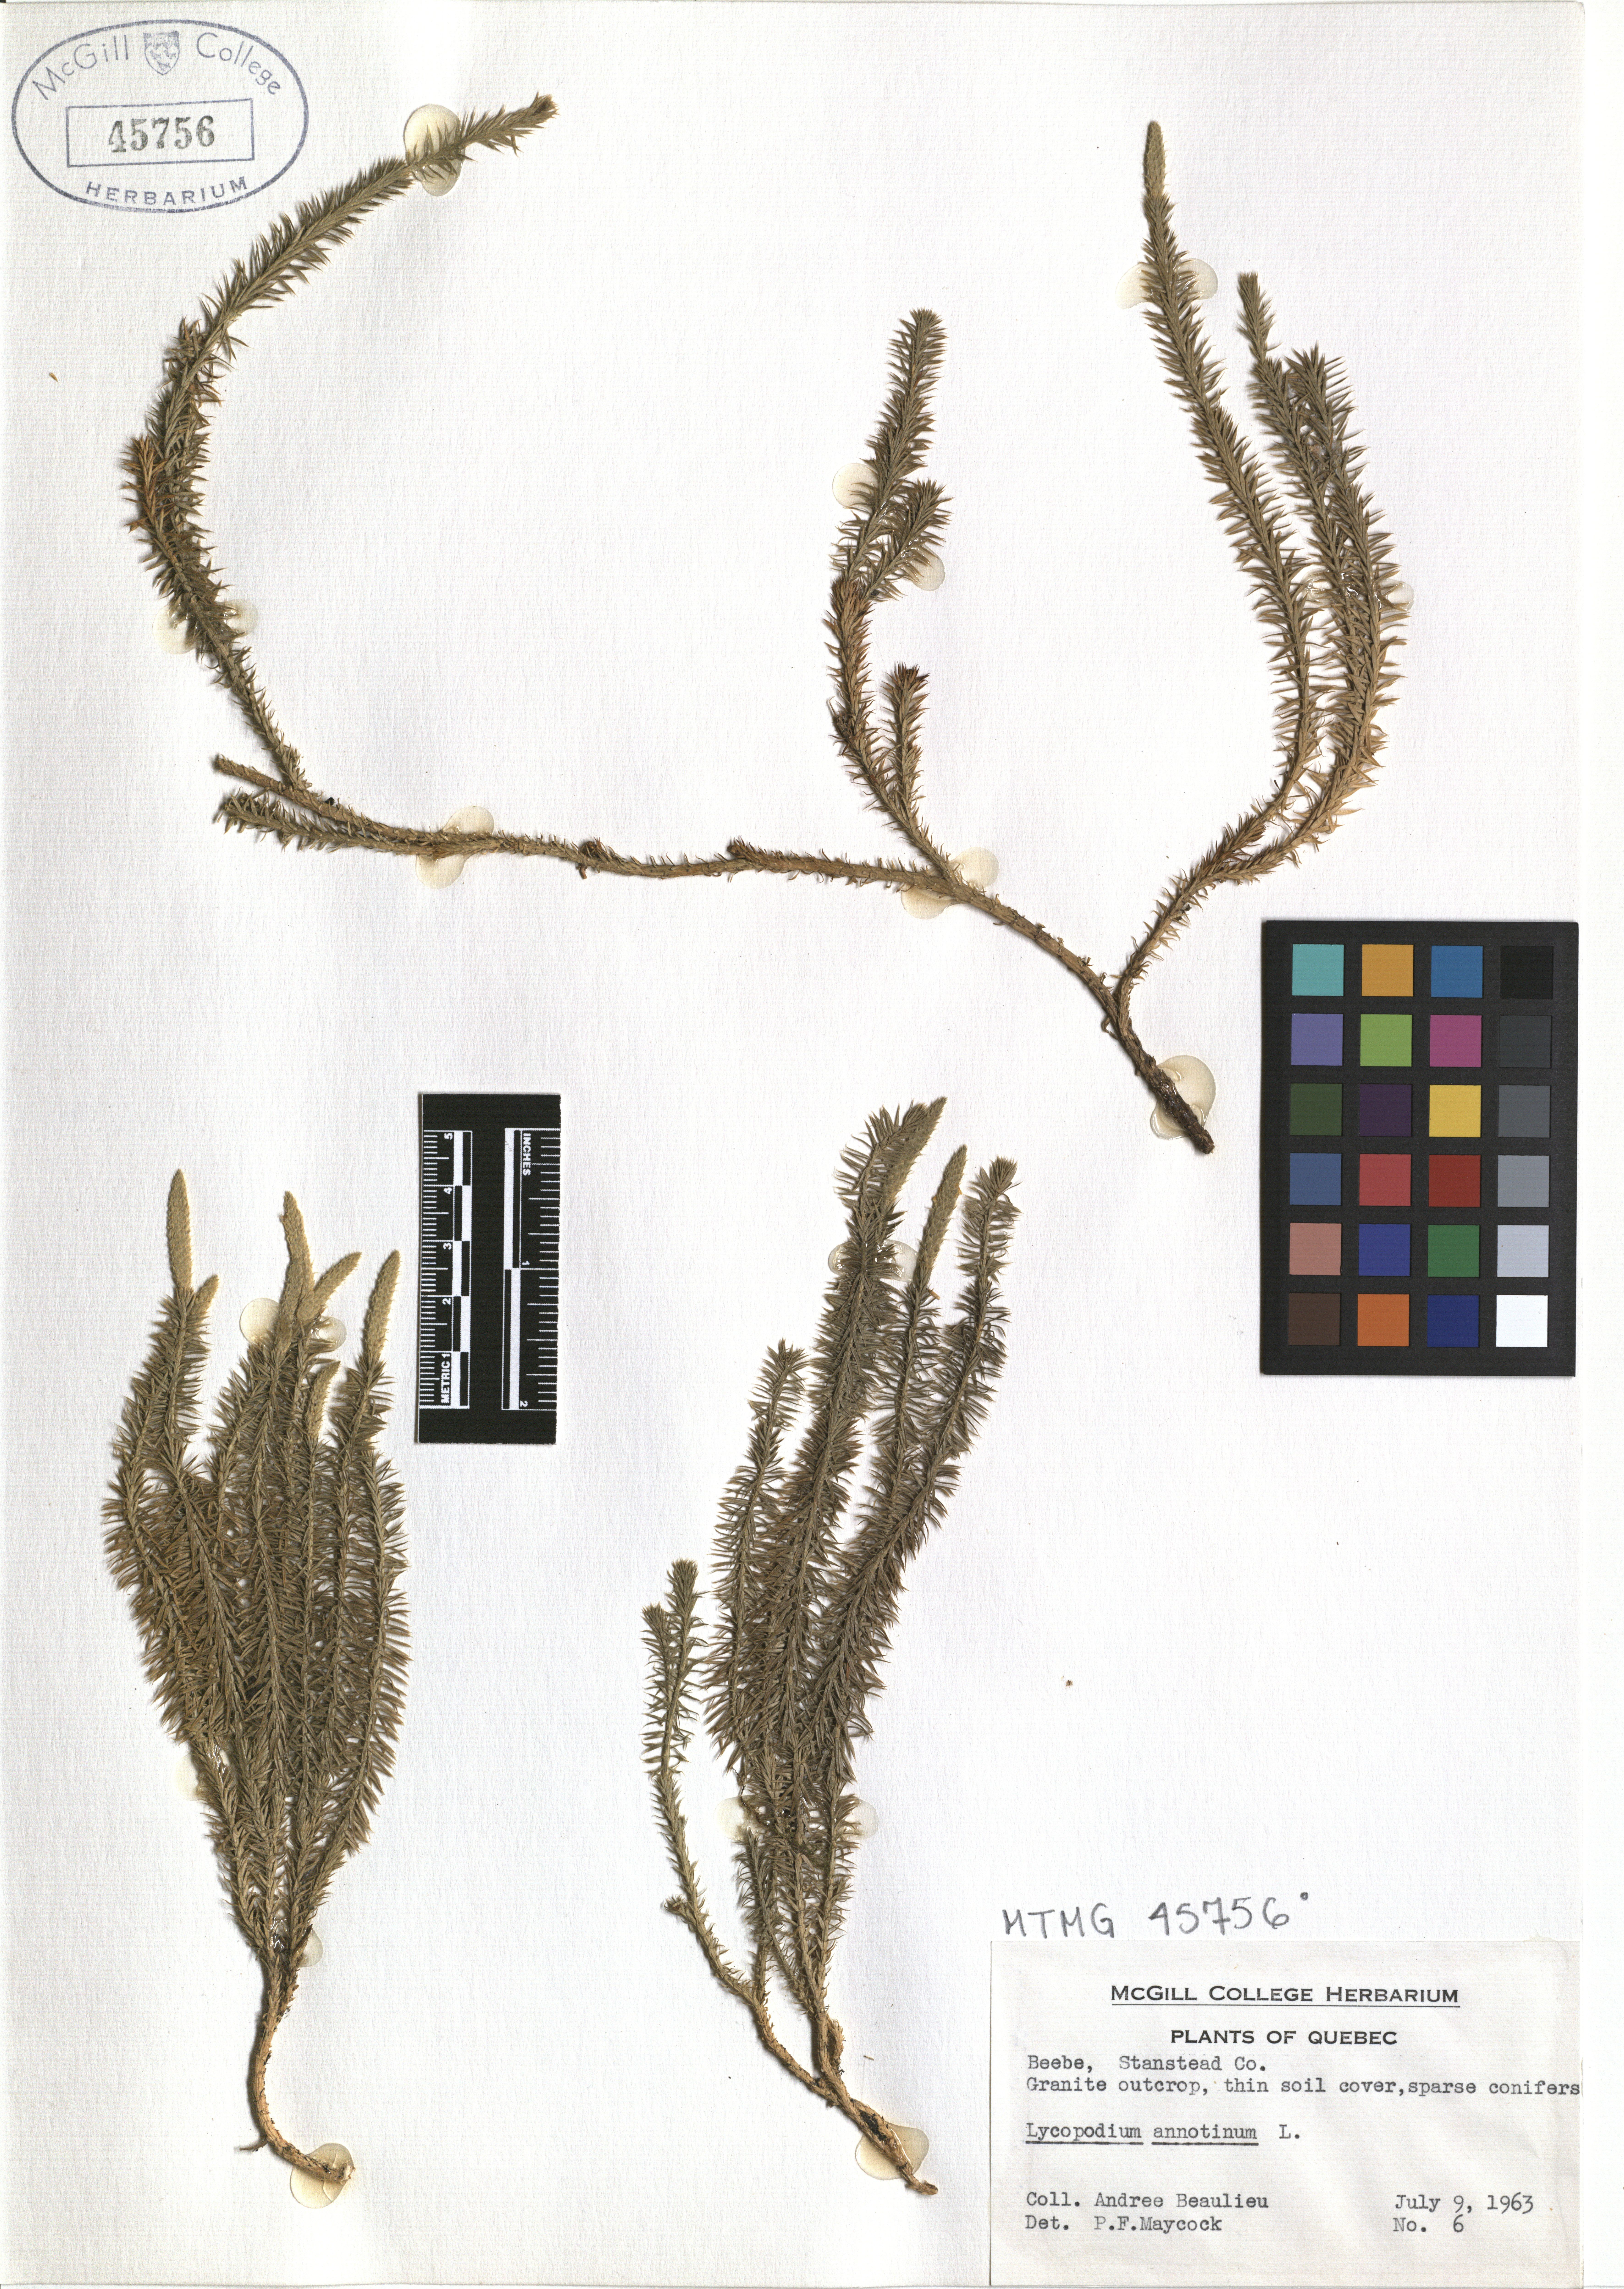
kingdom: Plantae
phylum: Tracheophyta
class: Lycopodiopsida
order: Lycopodiales
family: Lycopodiaceae
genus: Spinulum
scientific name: Spinulum annotinum
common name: Interrupted club-moss
